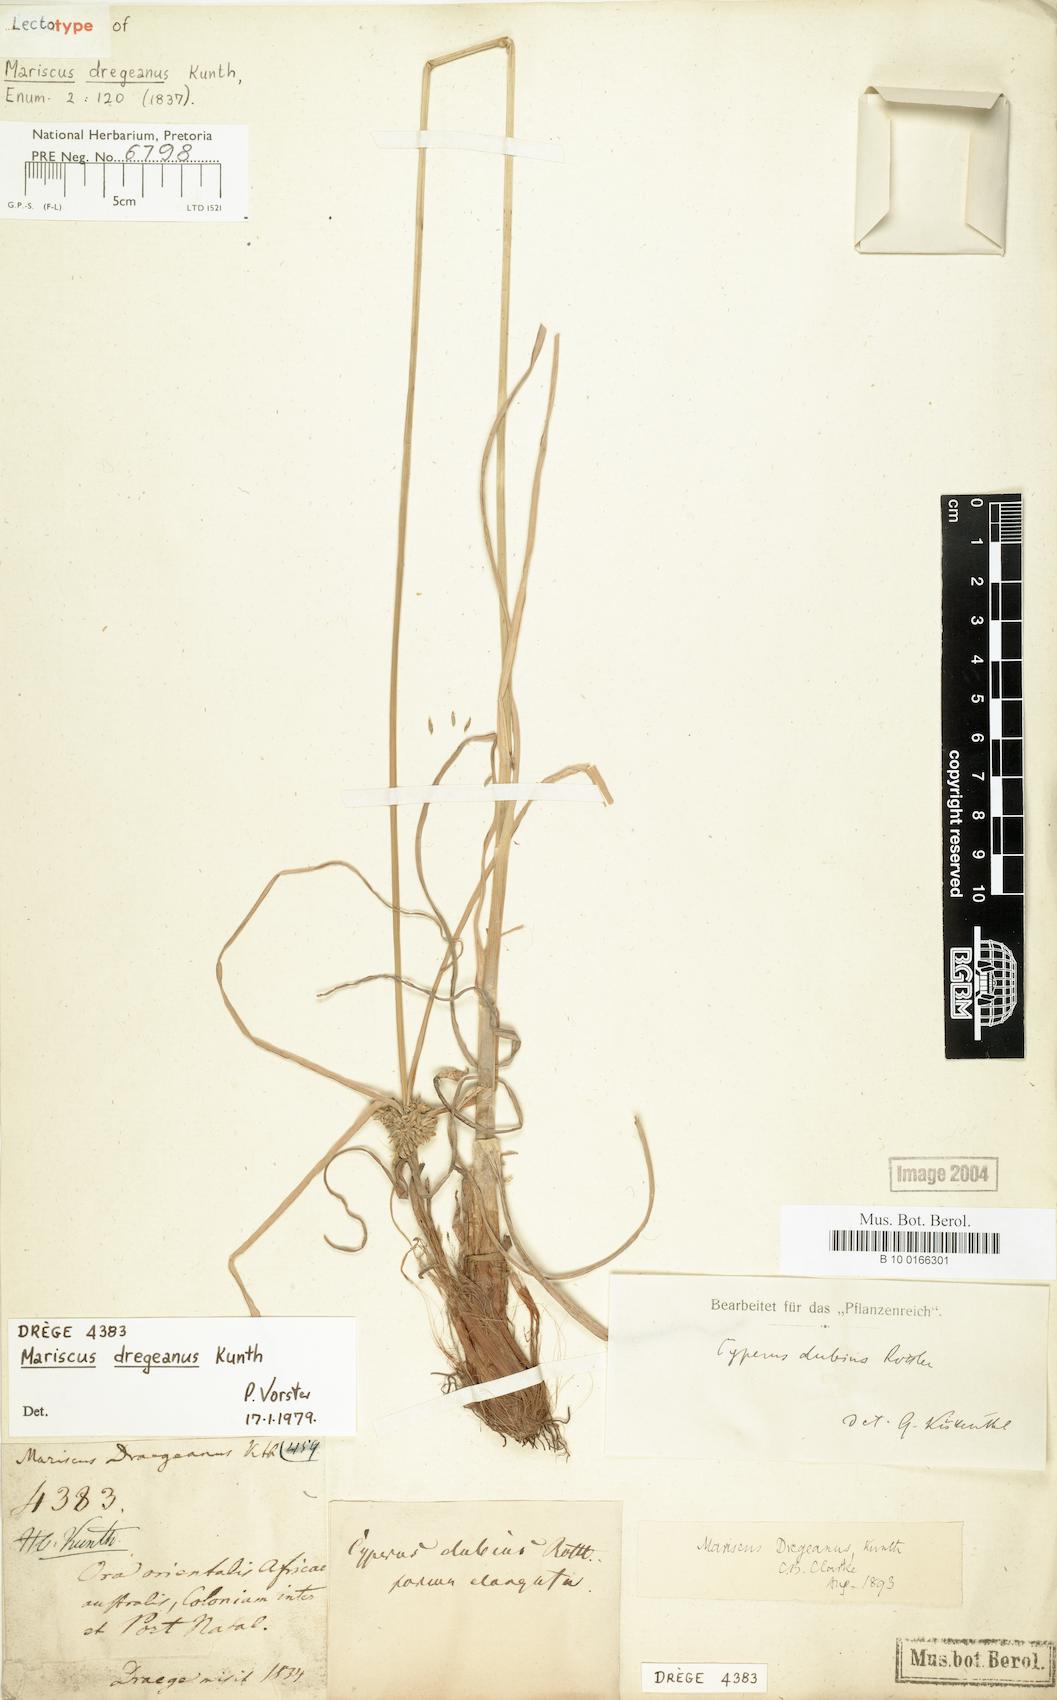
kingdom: Plantae
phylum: Tracheophyta
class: Liliopsida
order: Poales
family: Cyperaceae
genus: Cyperus
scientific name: Cyperus dregeanus
